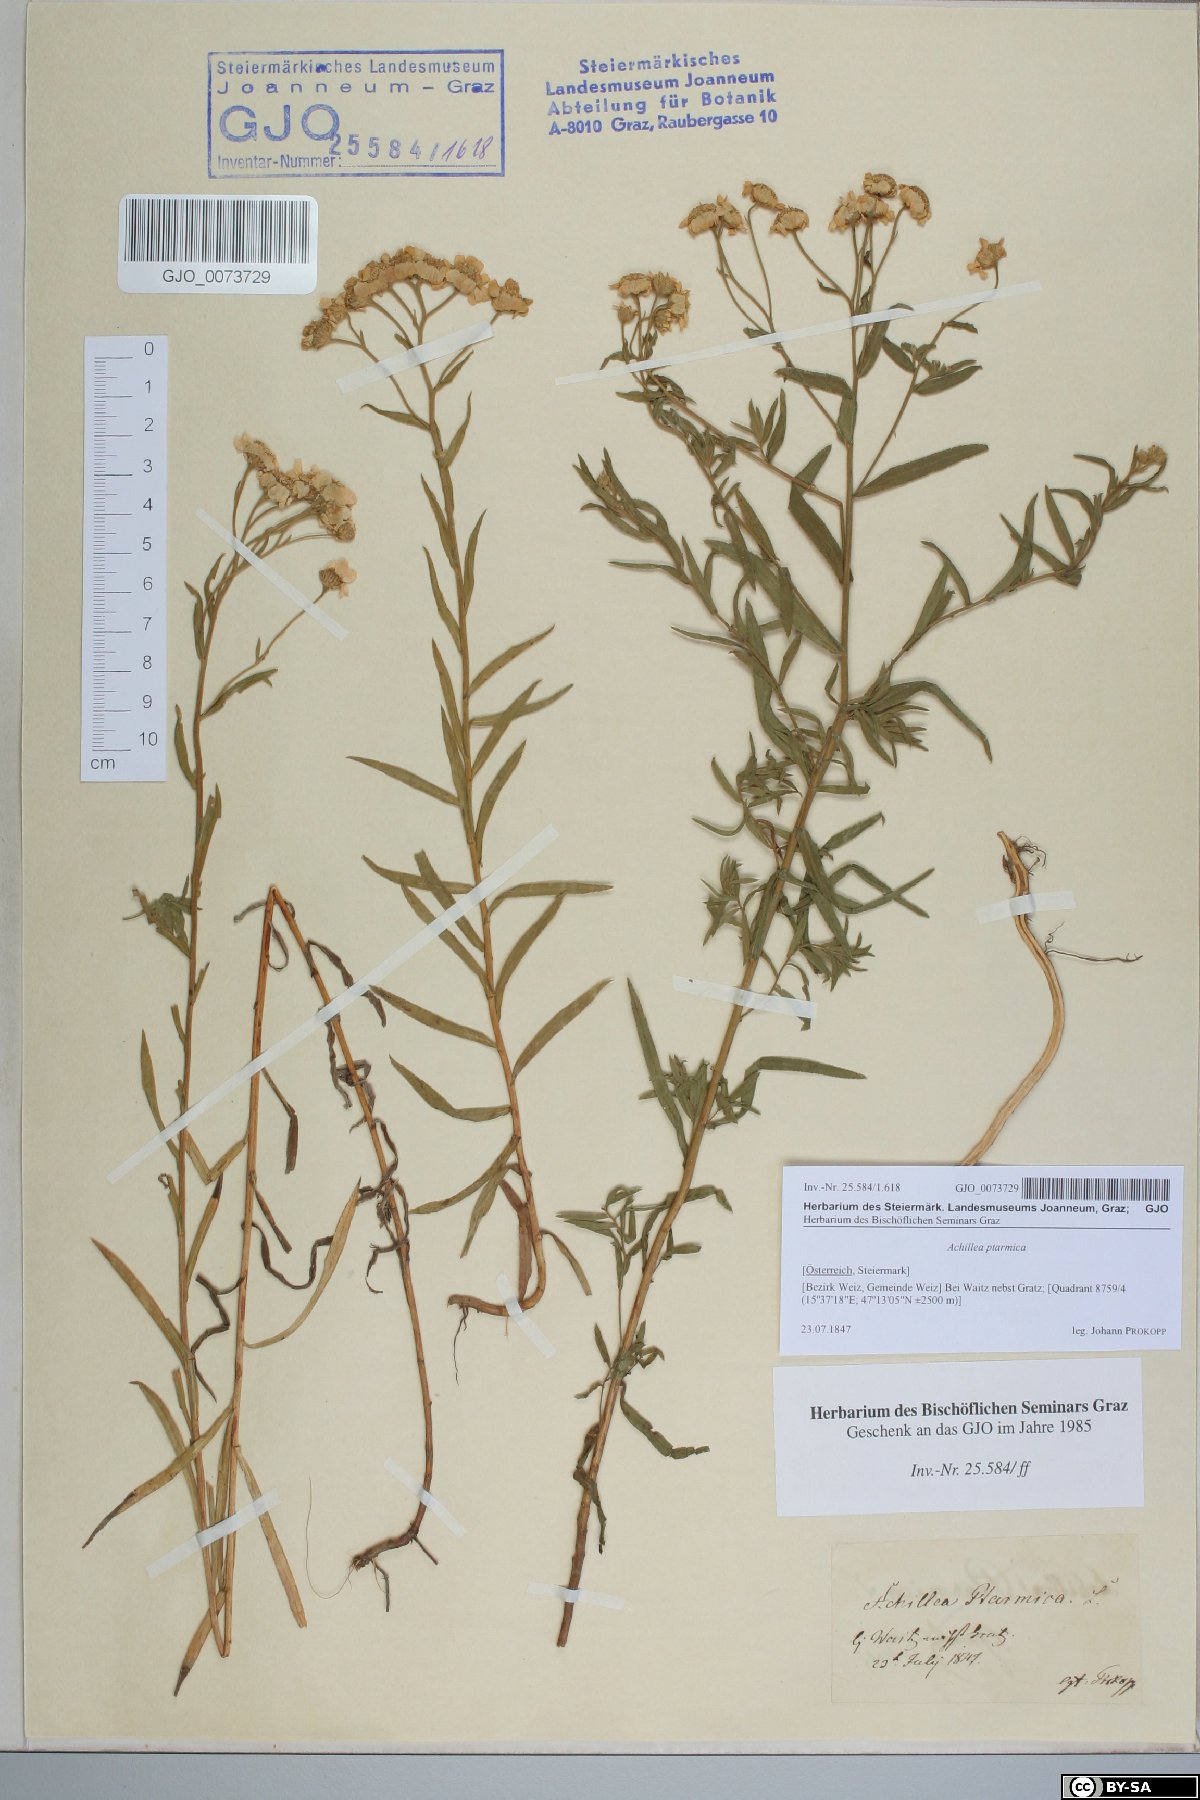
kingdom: Plantae
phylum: Tracheophyta
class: Magnoliopsida
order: Asterales
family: Asteraceae
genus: Achillea
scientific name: Achillea ptarmica
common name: Sneezeweed
